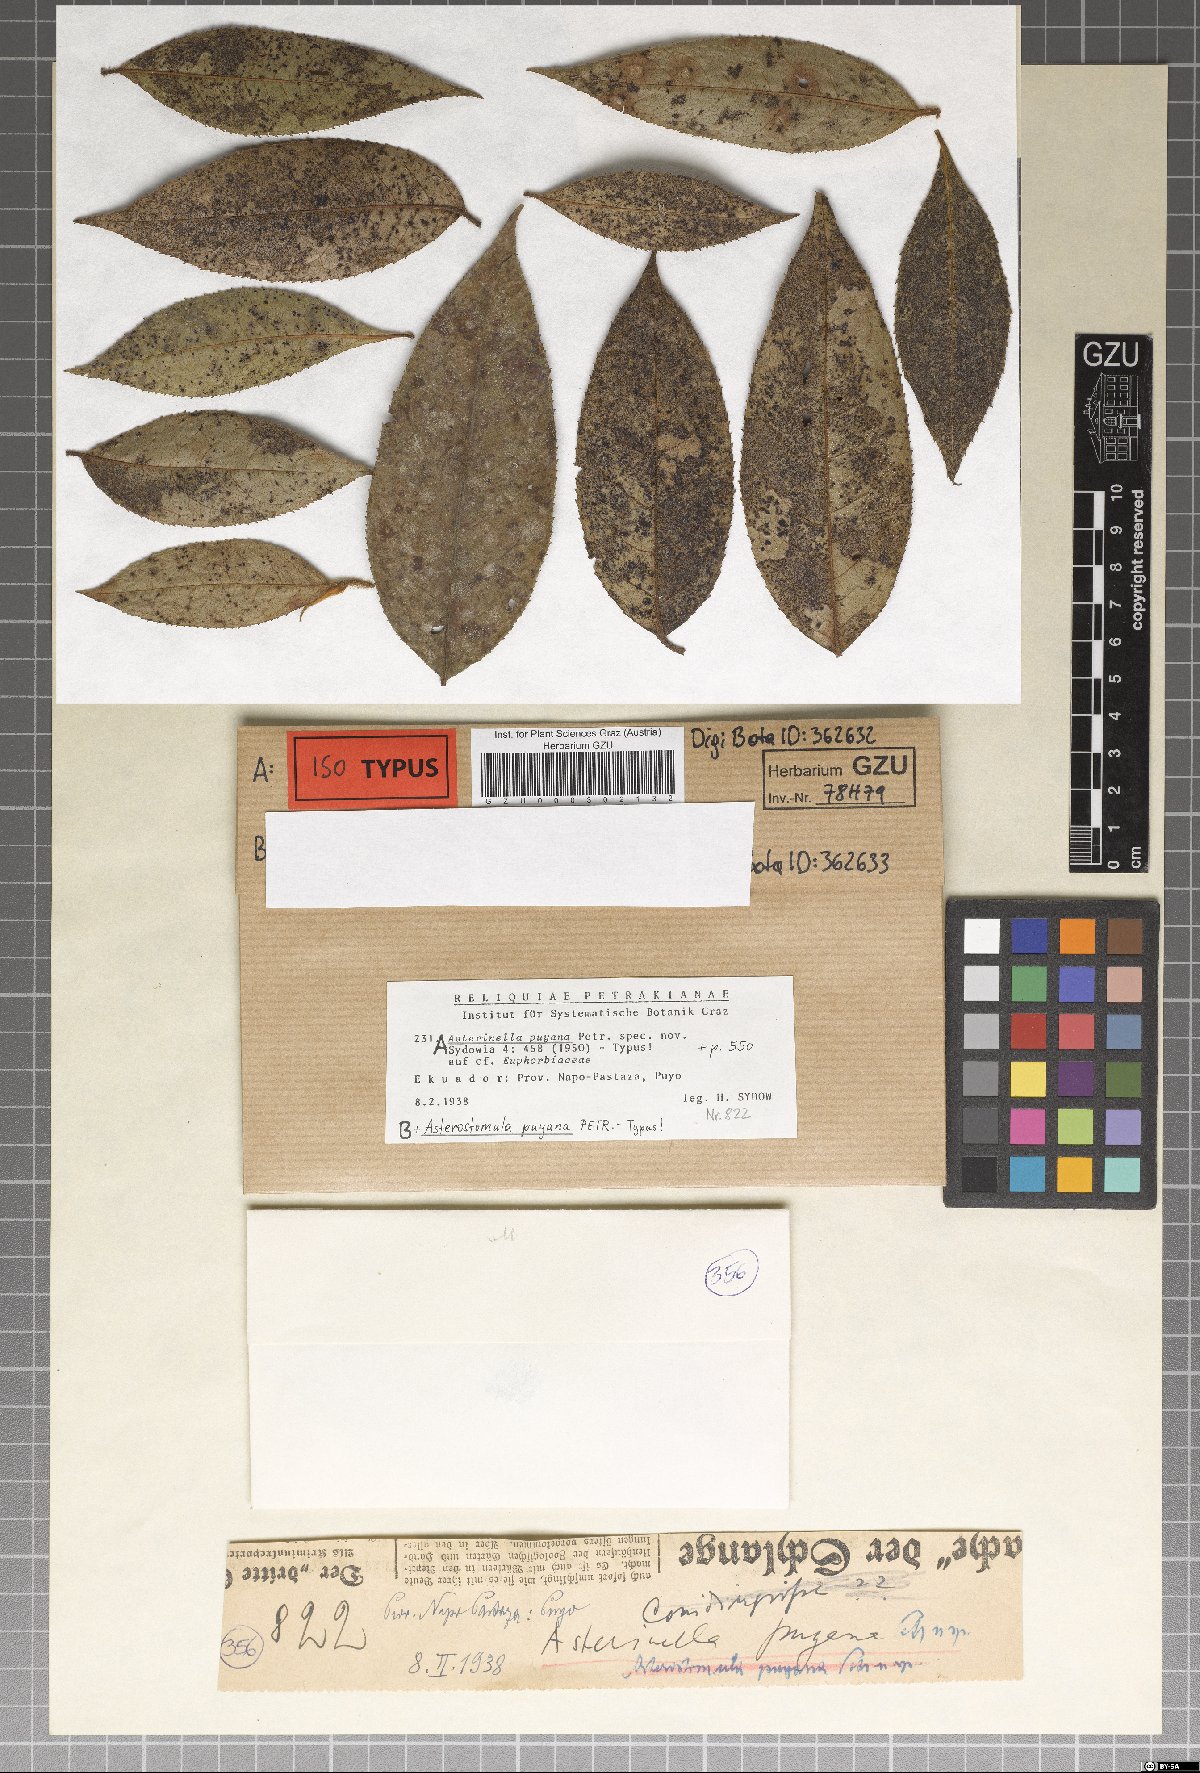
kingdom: Fungi
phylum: Ascomycota
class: Dothideomycetes
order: Microthyriales
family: Microthyriaceae
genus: Asterinella
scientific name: Asterinella puyana
